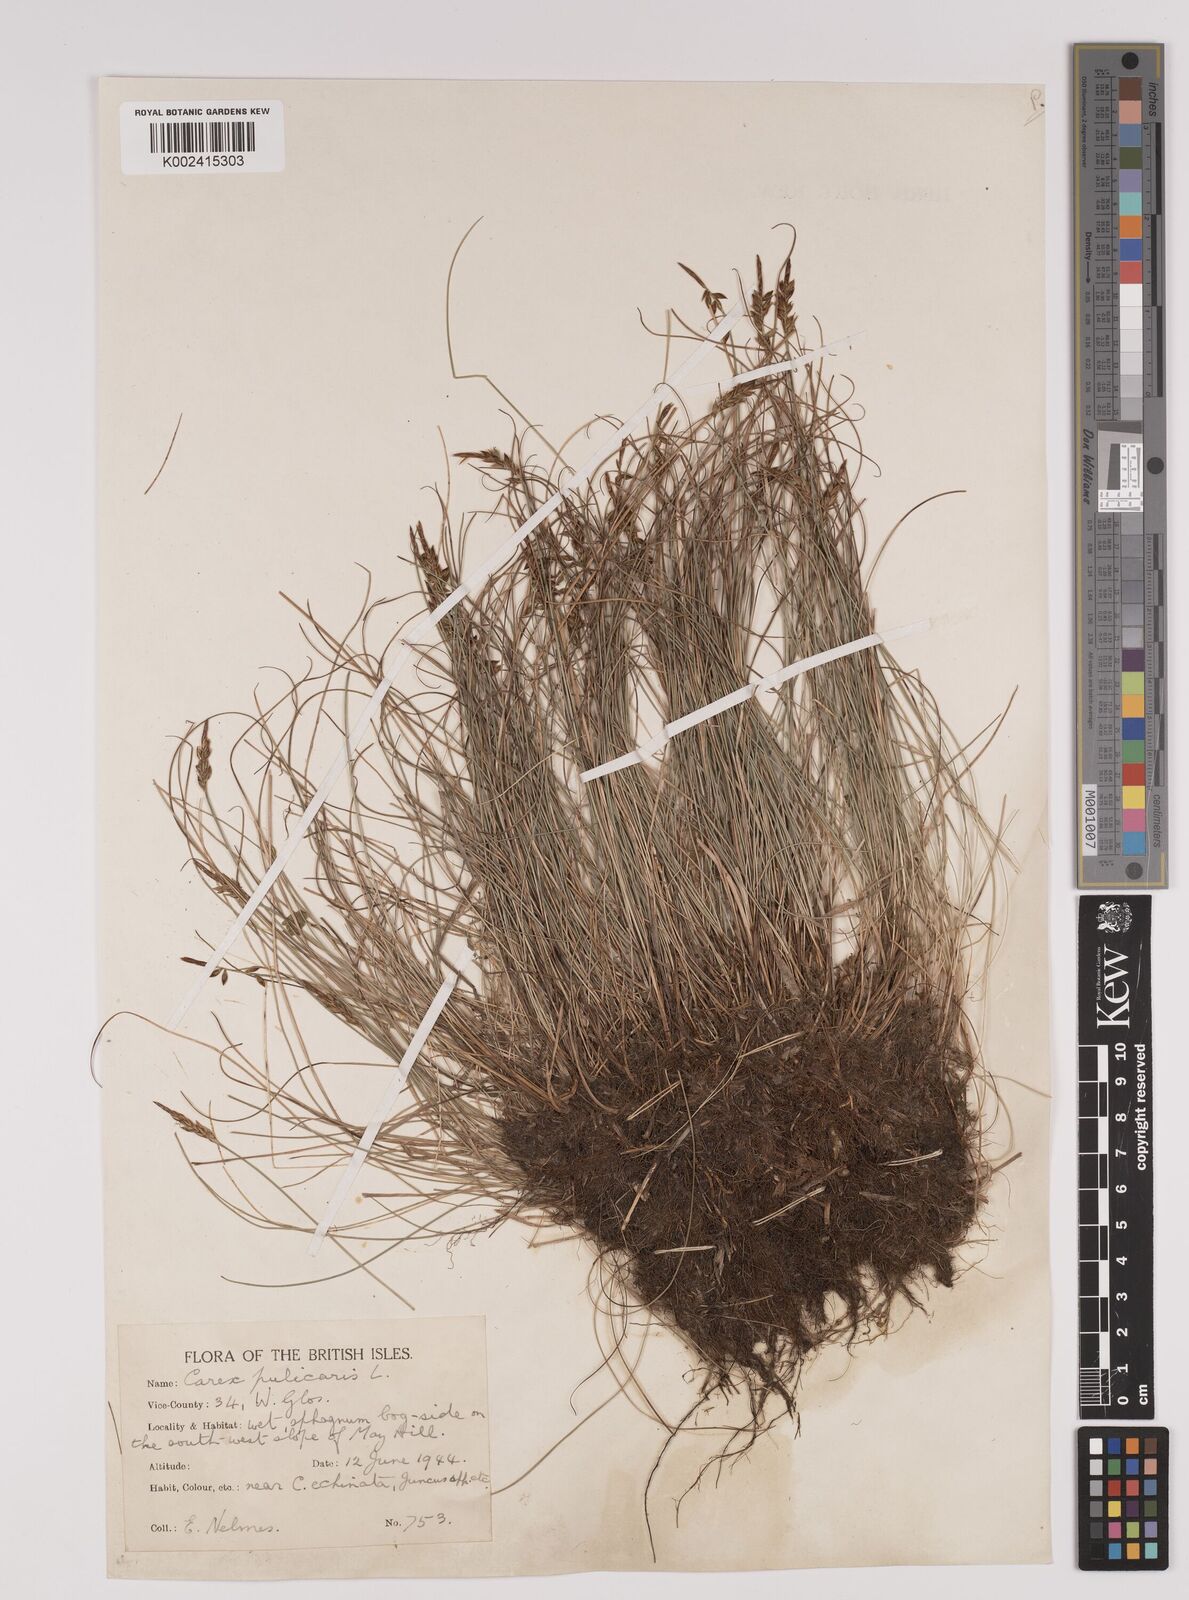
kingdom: Plantae
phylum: Tracheophyta
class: Liliopsida
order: Poales
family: Cyperaceae
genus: Carex
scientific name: Carex pulicaris
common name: Flea sedge
